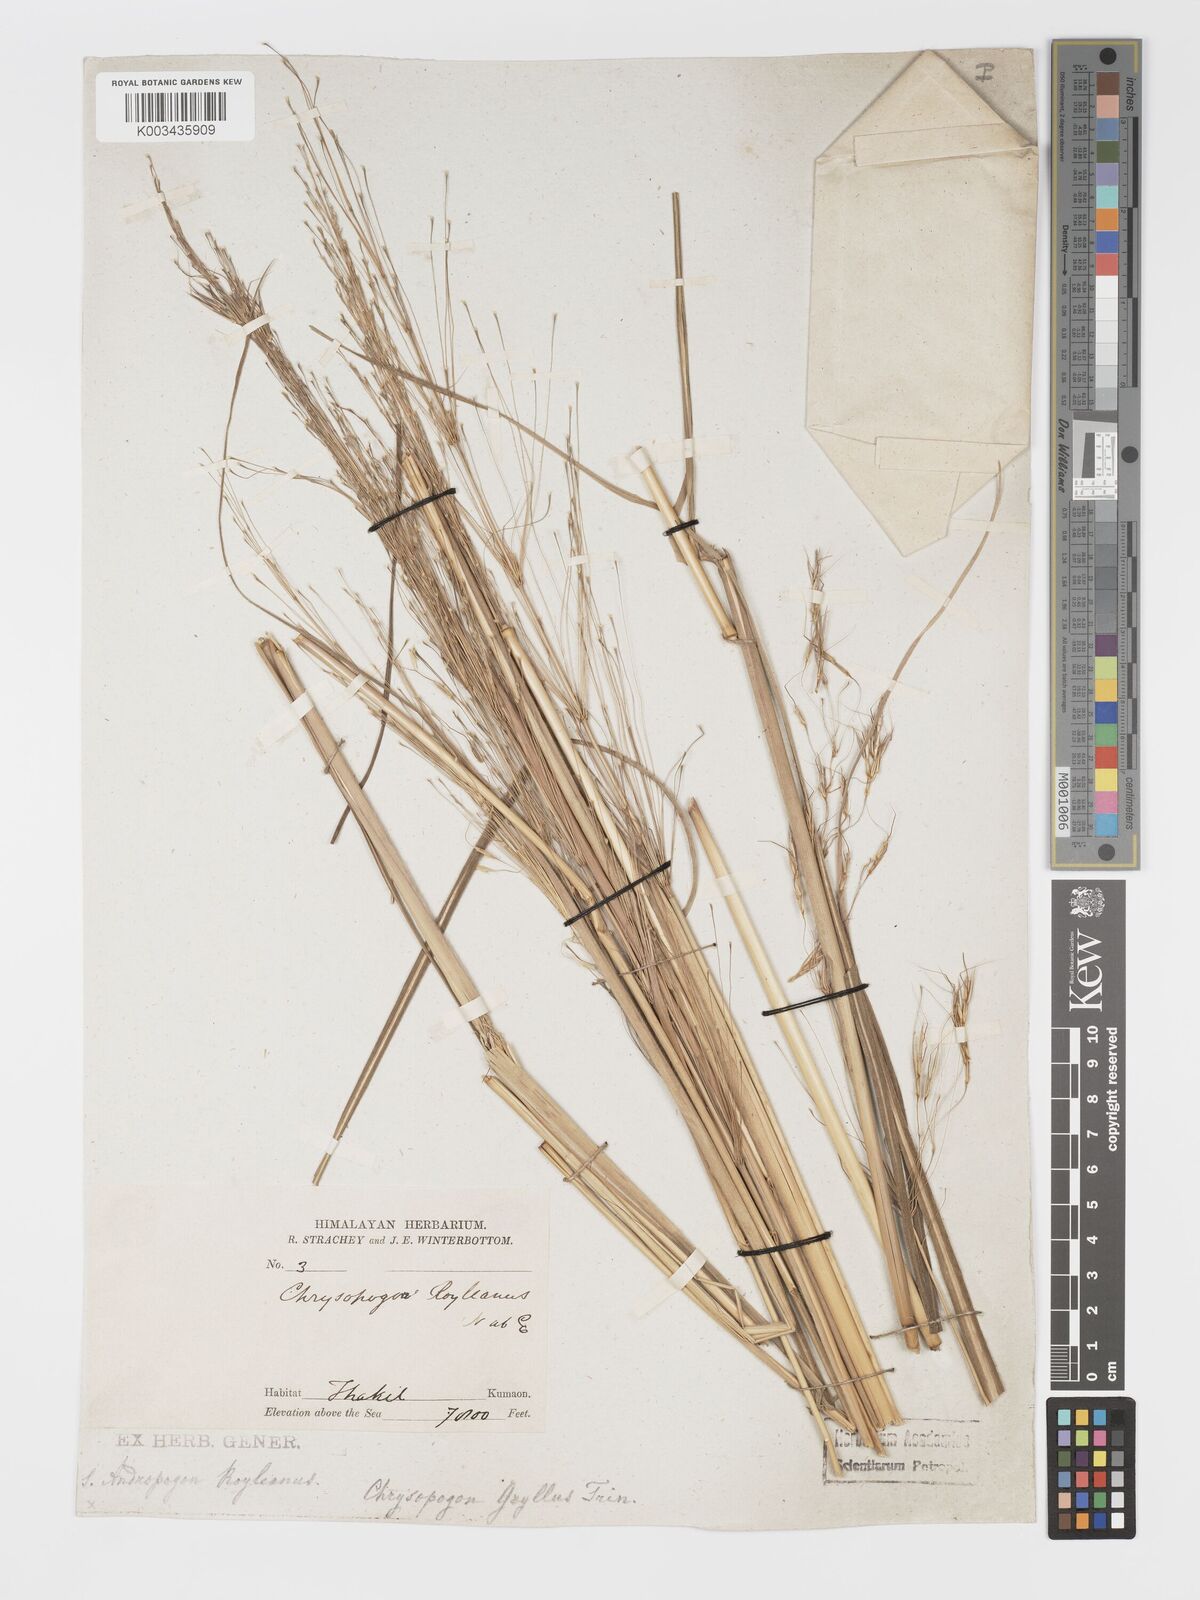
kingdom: Plantae
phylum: Tracheophyta
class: Liliopsida
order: Poales
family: Poaceae
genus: Chrysopogon
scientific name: Chrysopogon gryllus
